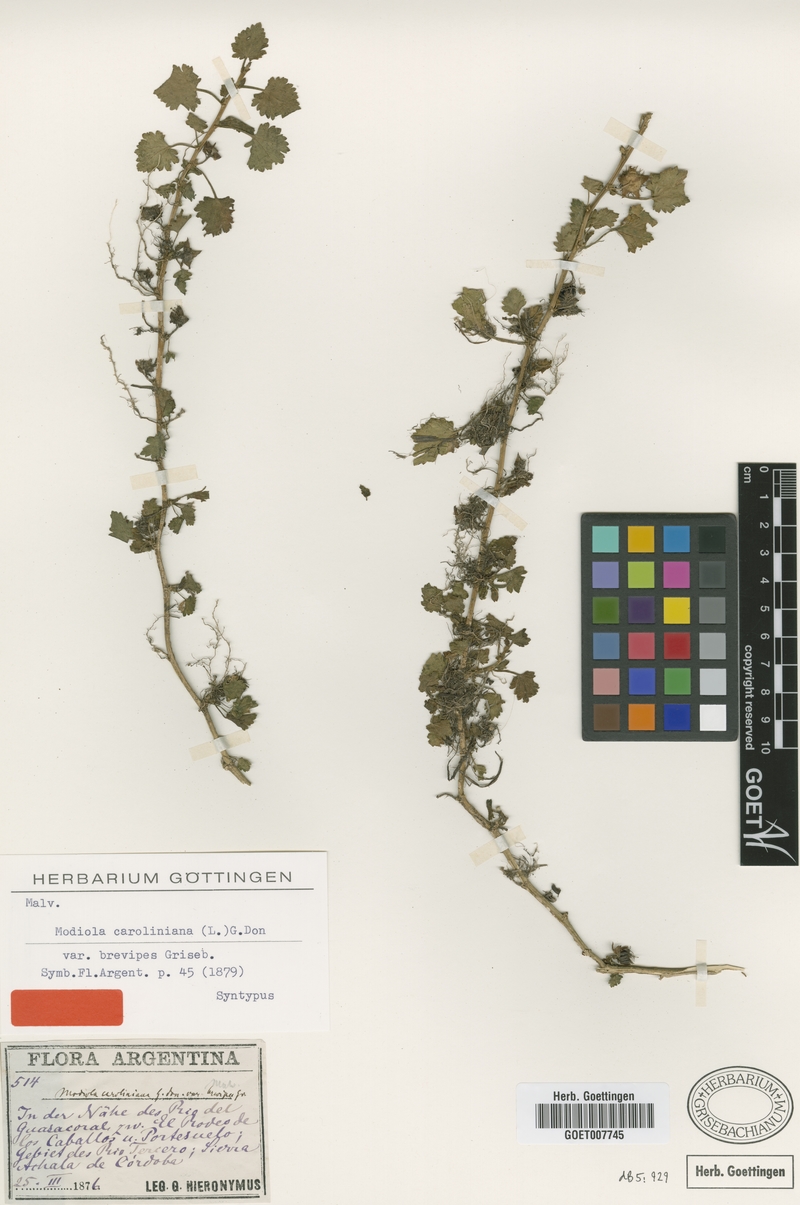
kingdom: Plantae
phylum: Tracheophyta
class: Magnoliopsida
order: Malvales
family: Malvaceae
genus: Modiola
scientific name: Modiola caroliniana
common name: Carolina bristlemallow
